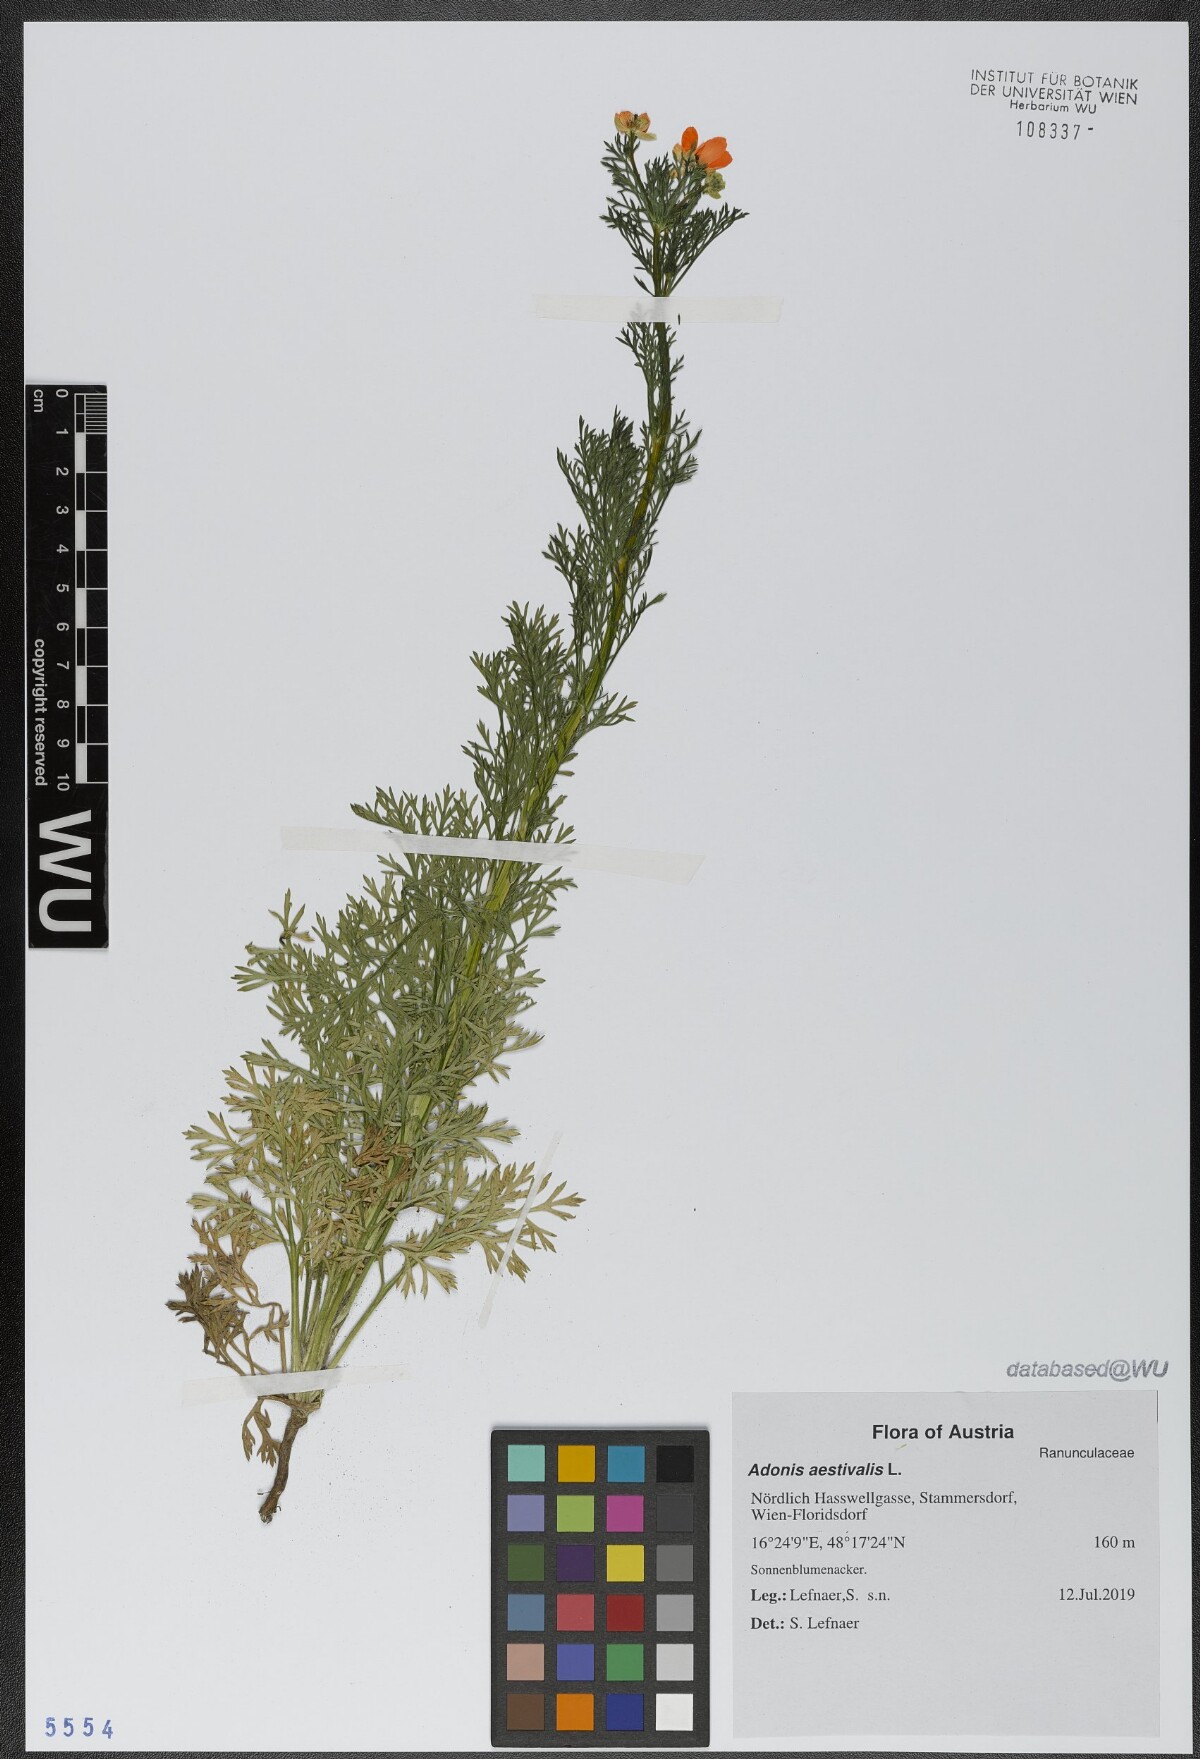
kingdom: Plantae
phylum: Tracheophyta
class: Magnoliopsida
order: Ranunculales
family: Ranunculaceae
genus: Adonis
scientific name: Adonis aestivalis
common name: Summer pheasant's-eye
